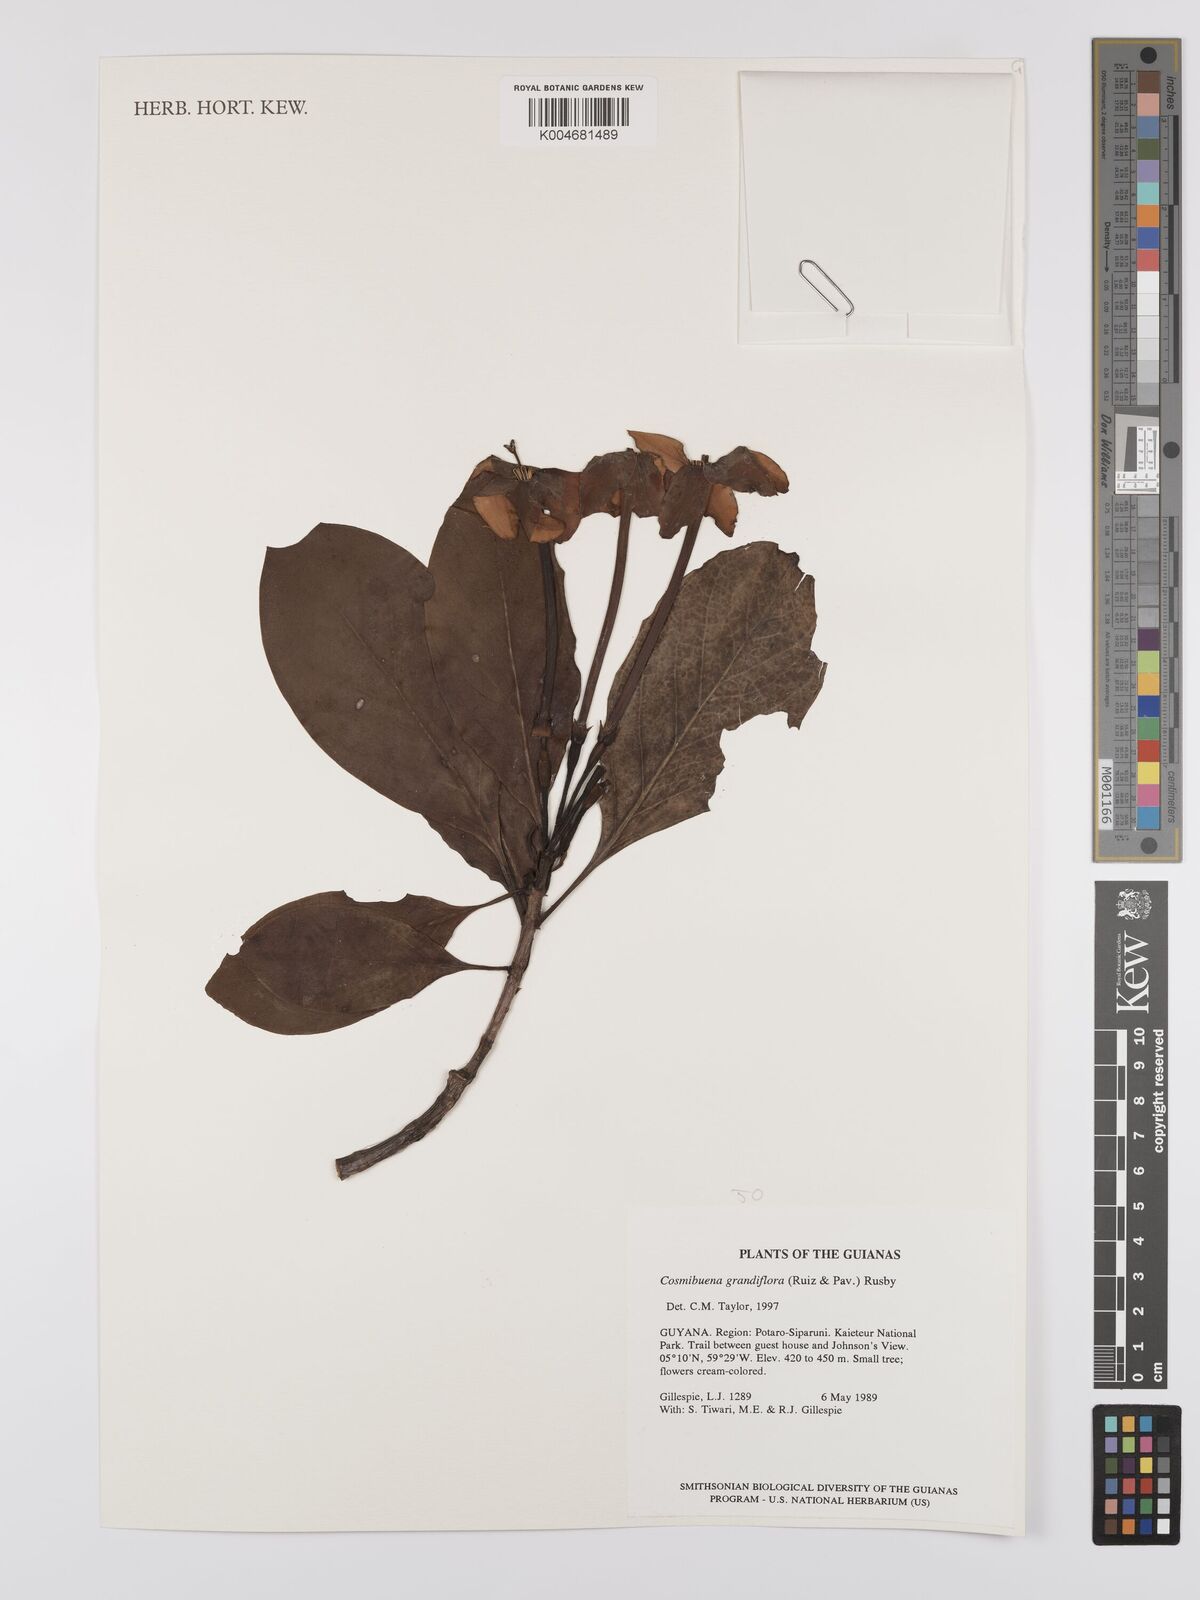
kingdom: Plantae
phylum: Tracheophyta
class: Magnoliopsida
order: Gentianales
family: Rubiaceae
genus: Cosmibuena
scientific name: Cosmibuena grandiflora
